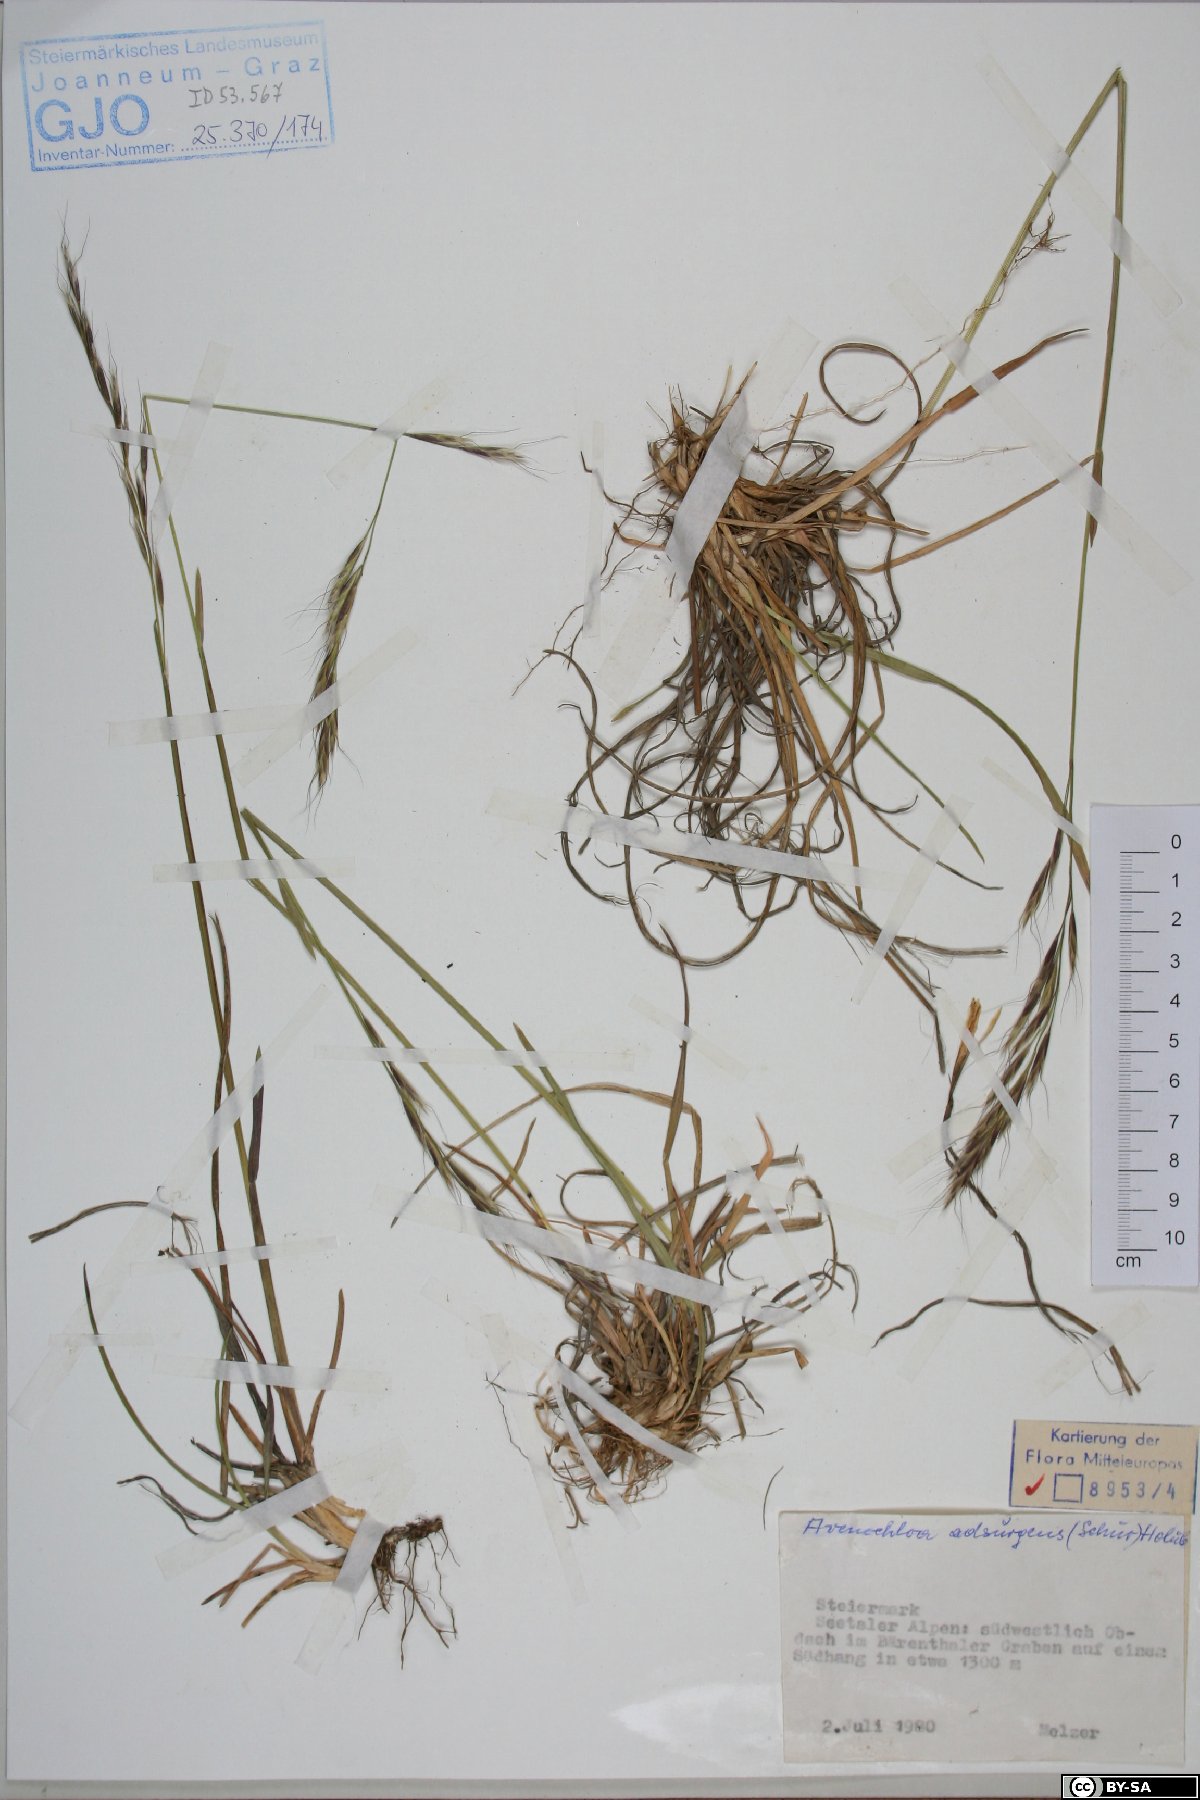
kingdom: Plantae
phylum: Tracheophyta
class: Liliopsida
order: Poales
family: Poaceae
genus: Helictochloa
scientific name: Helictochloa praeusta
